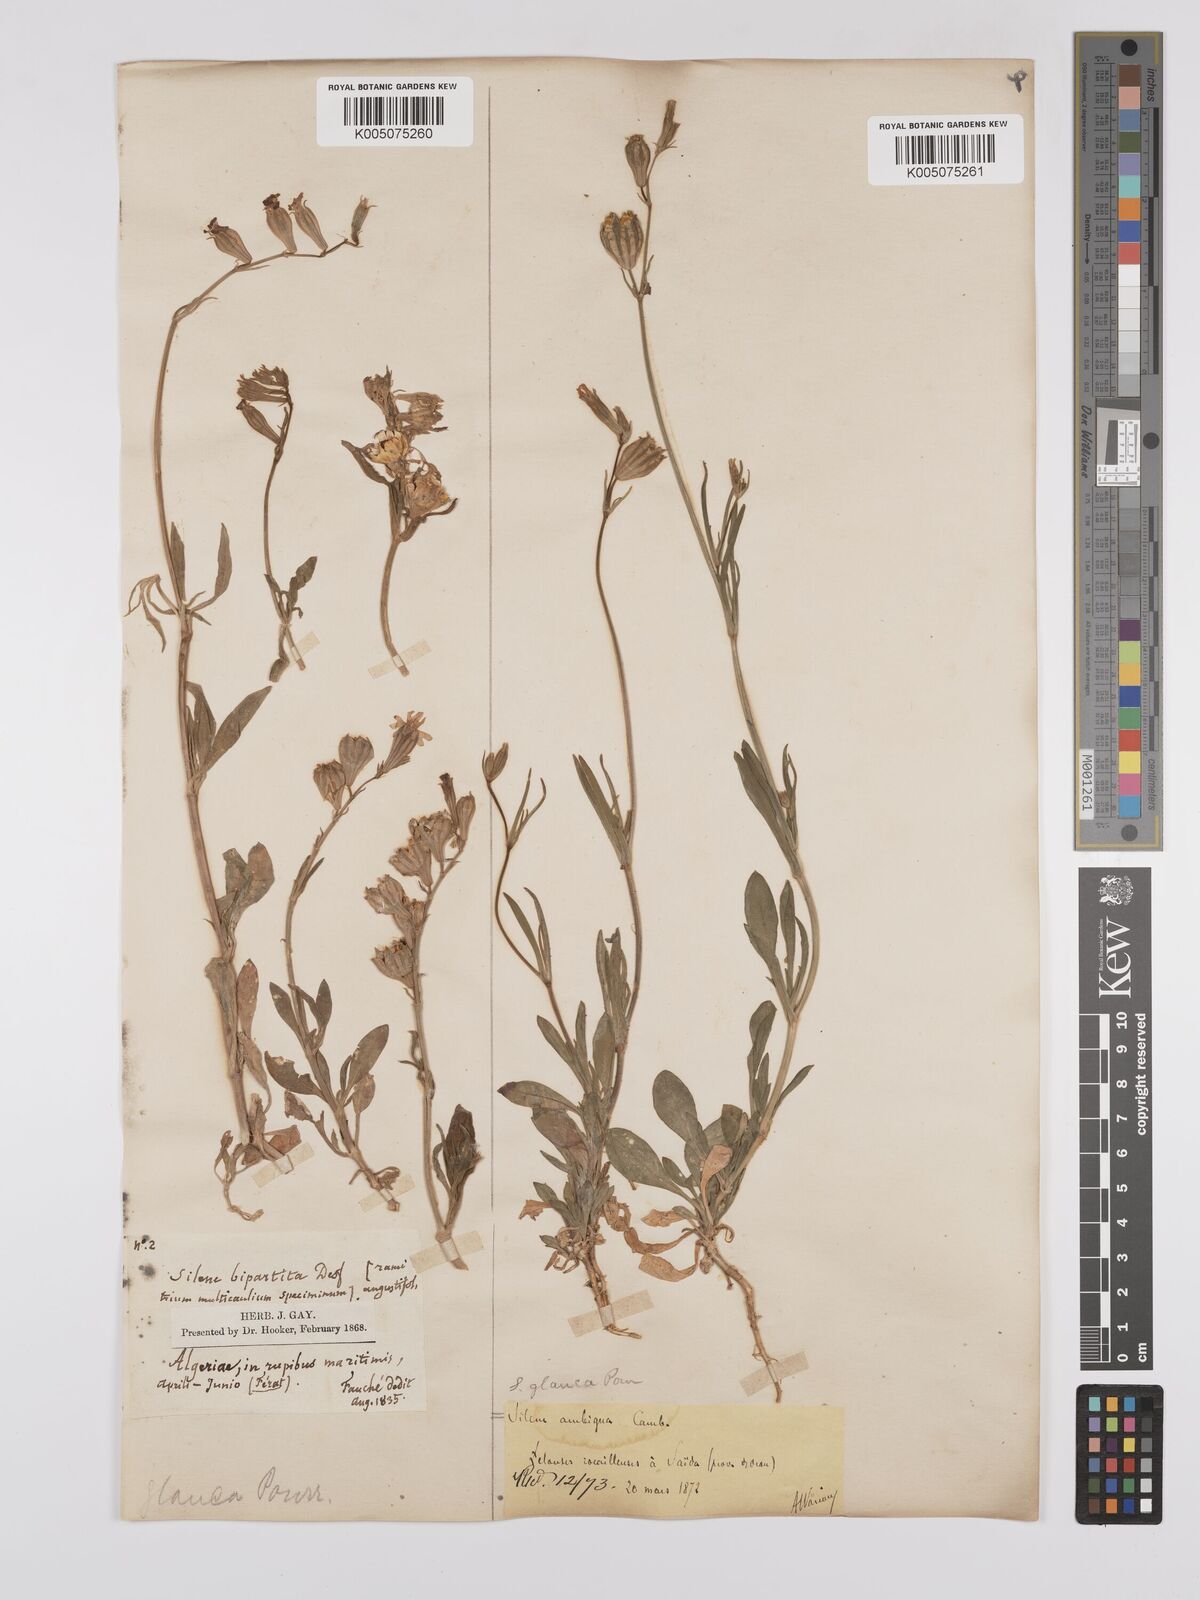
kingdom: Plantae
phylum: Tracheophyta
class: Magnoliopsida
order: Caryophyllales
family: Caryophyllaceae
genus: Silene
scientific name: Silene secundiflora
